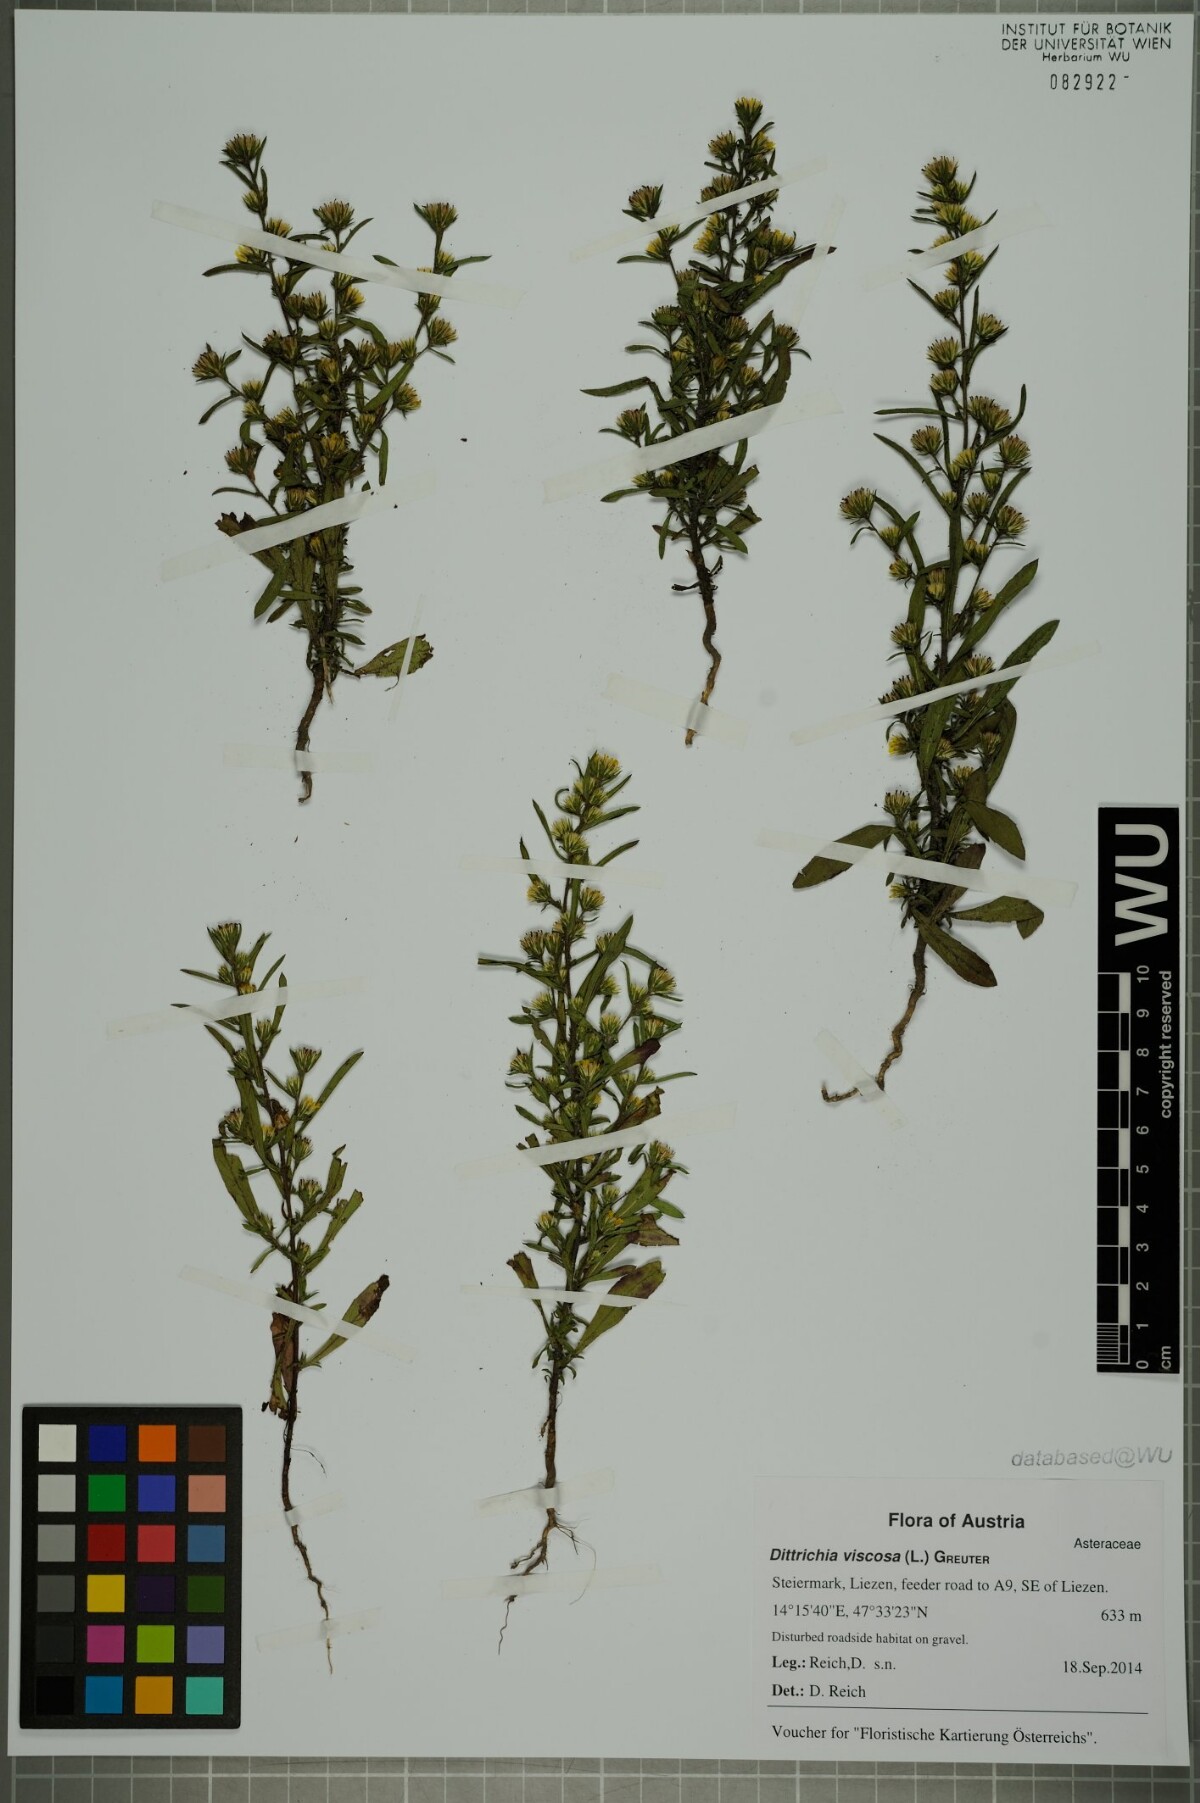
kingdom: Plantae
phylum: Tracheophyta
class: Magnoliopsida
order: Asterales
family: Asteraceae
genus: Dittrichia
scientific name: Dittrichia graveolens
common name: Stinking fleabane
